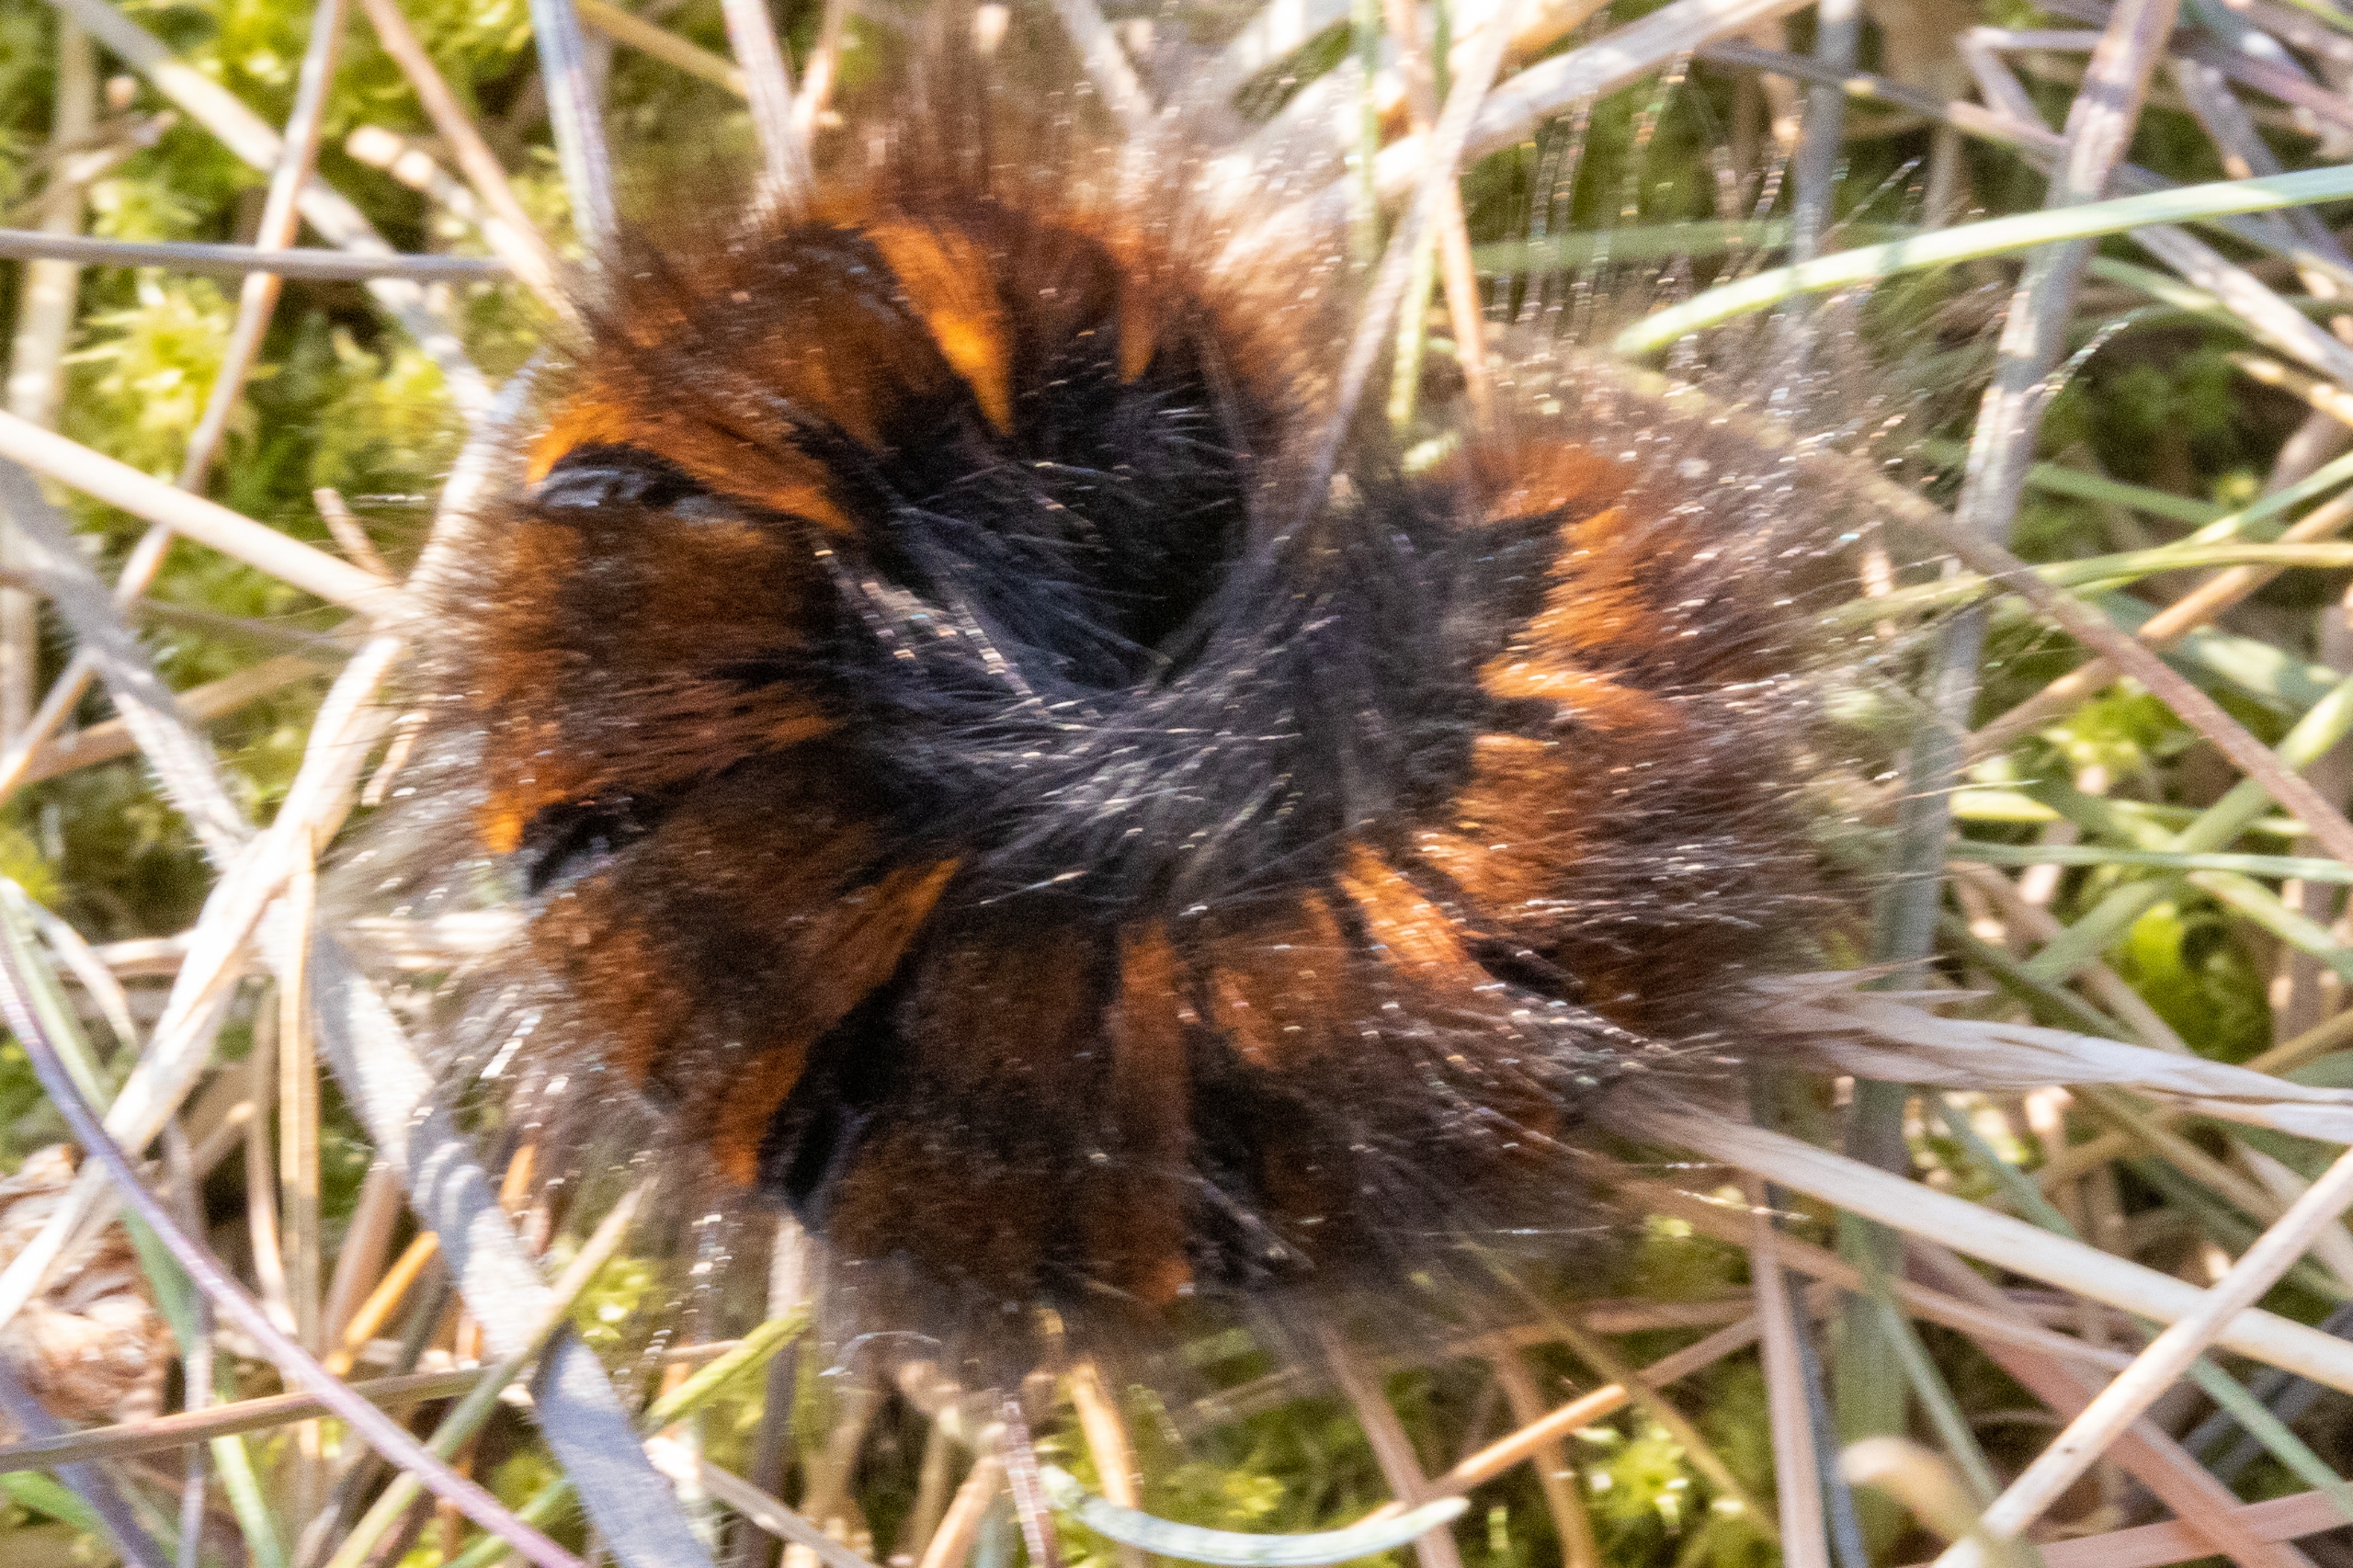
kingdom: Animalia
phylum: Arthropoda
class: Insecta
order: Lepidoptera
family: Lasiocampidae
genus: Macrothylacia
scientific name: Macrothylacia rubi
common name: Brombærspinder
